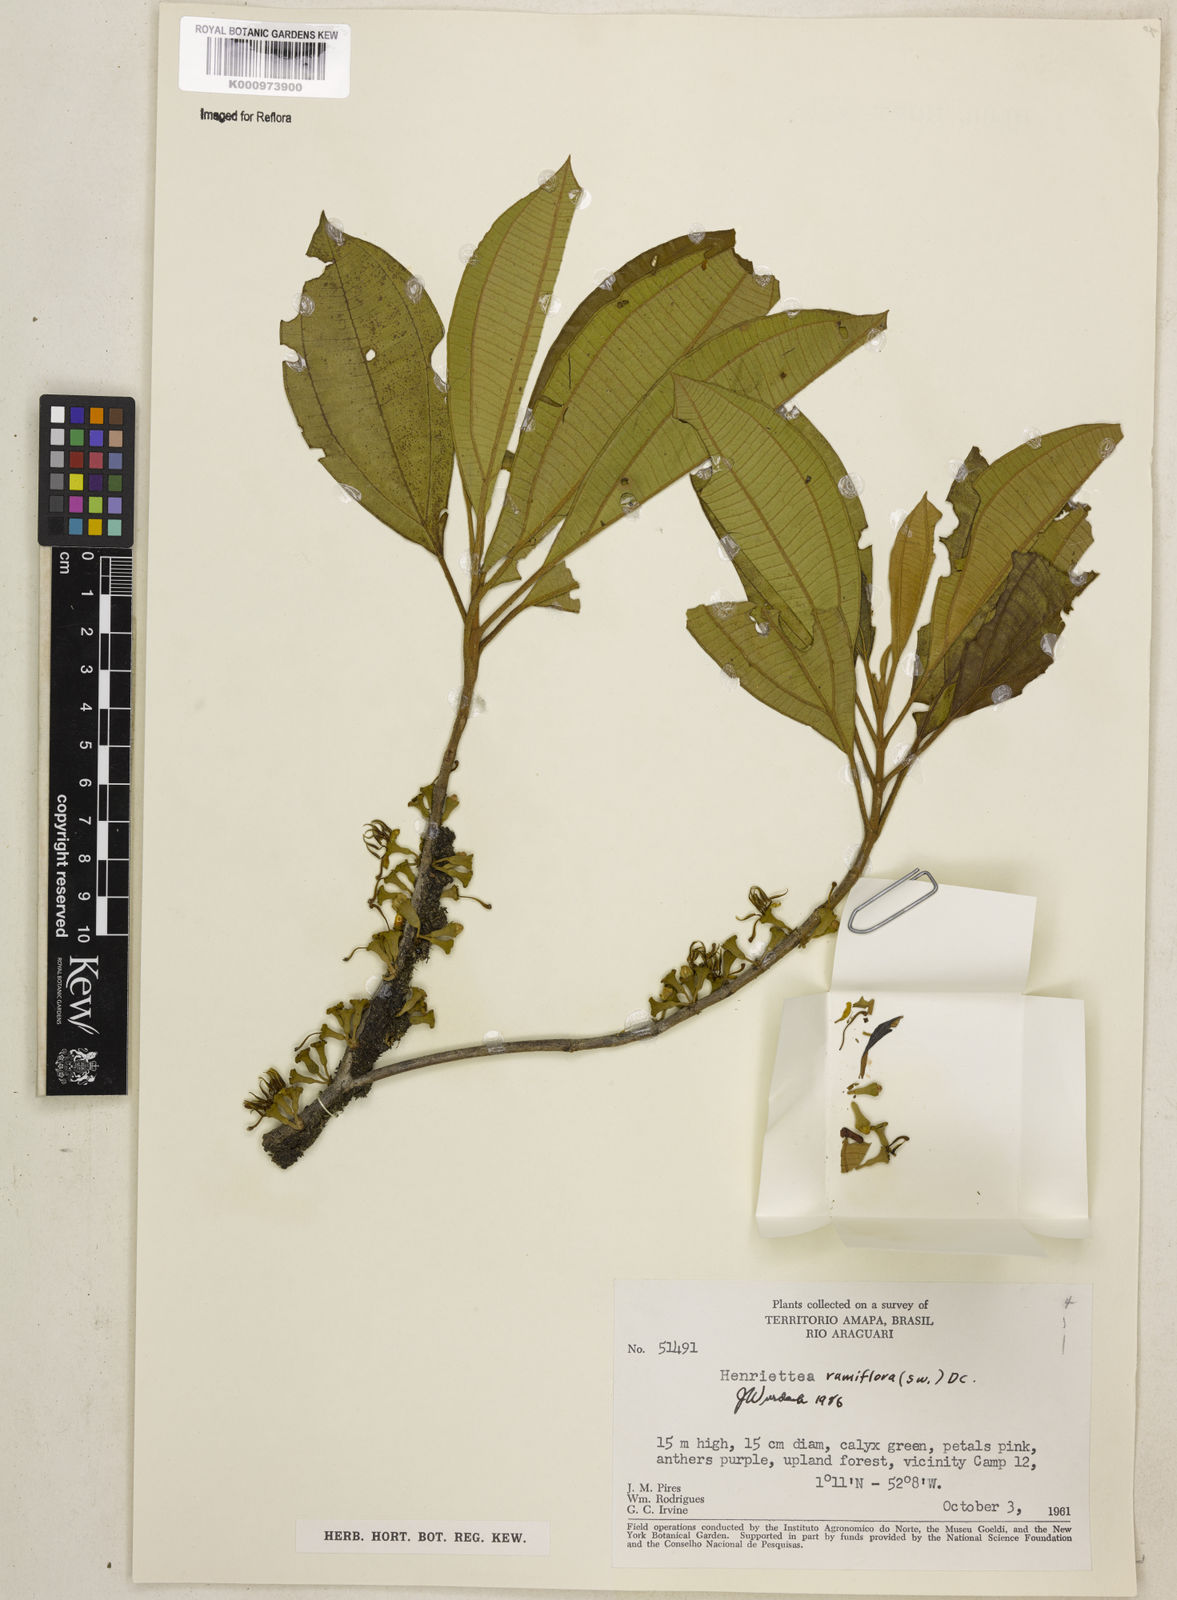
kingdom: Plantae
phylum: Tracheophyta
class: Magnoliopsida
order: Myrtales
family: Melastomataceae
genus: Henriettea
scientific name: Henriettea ramiflora
